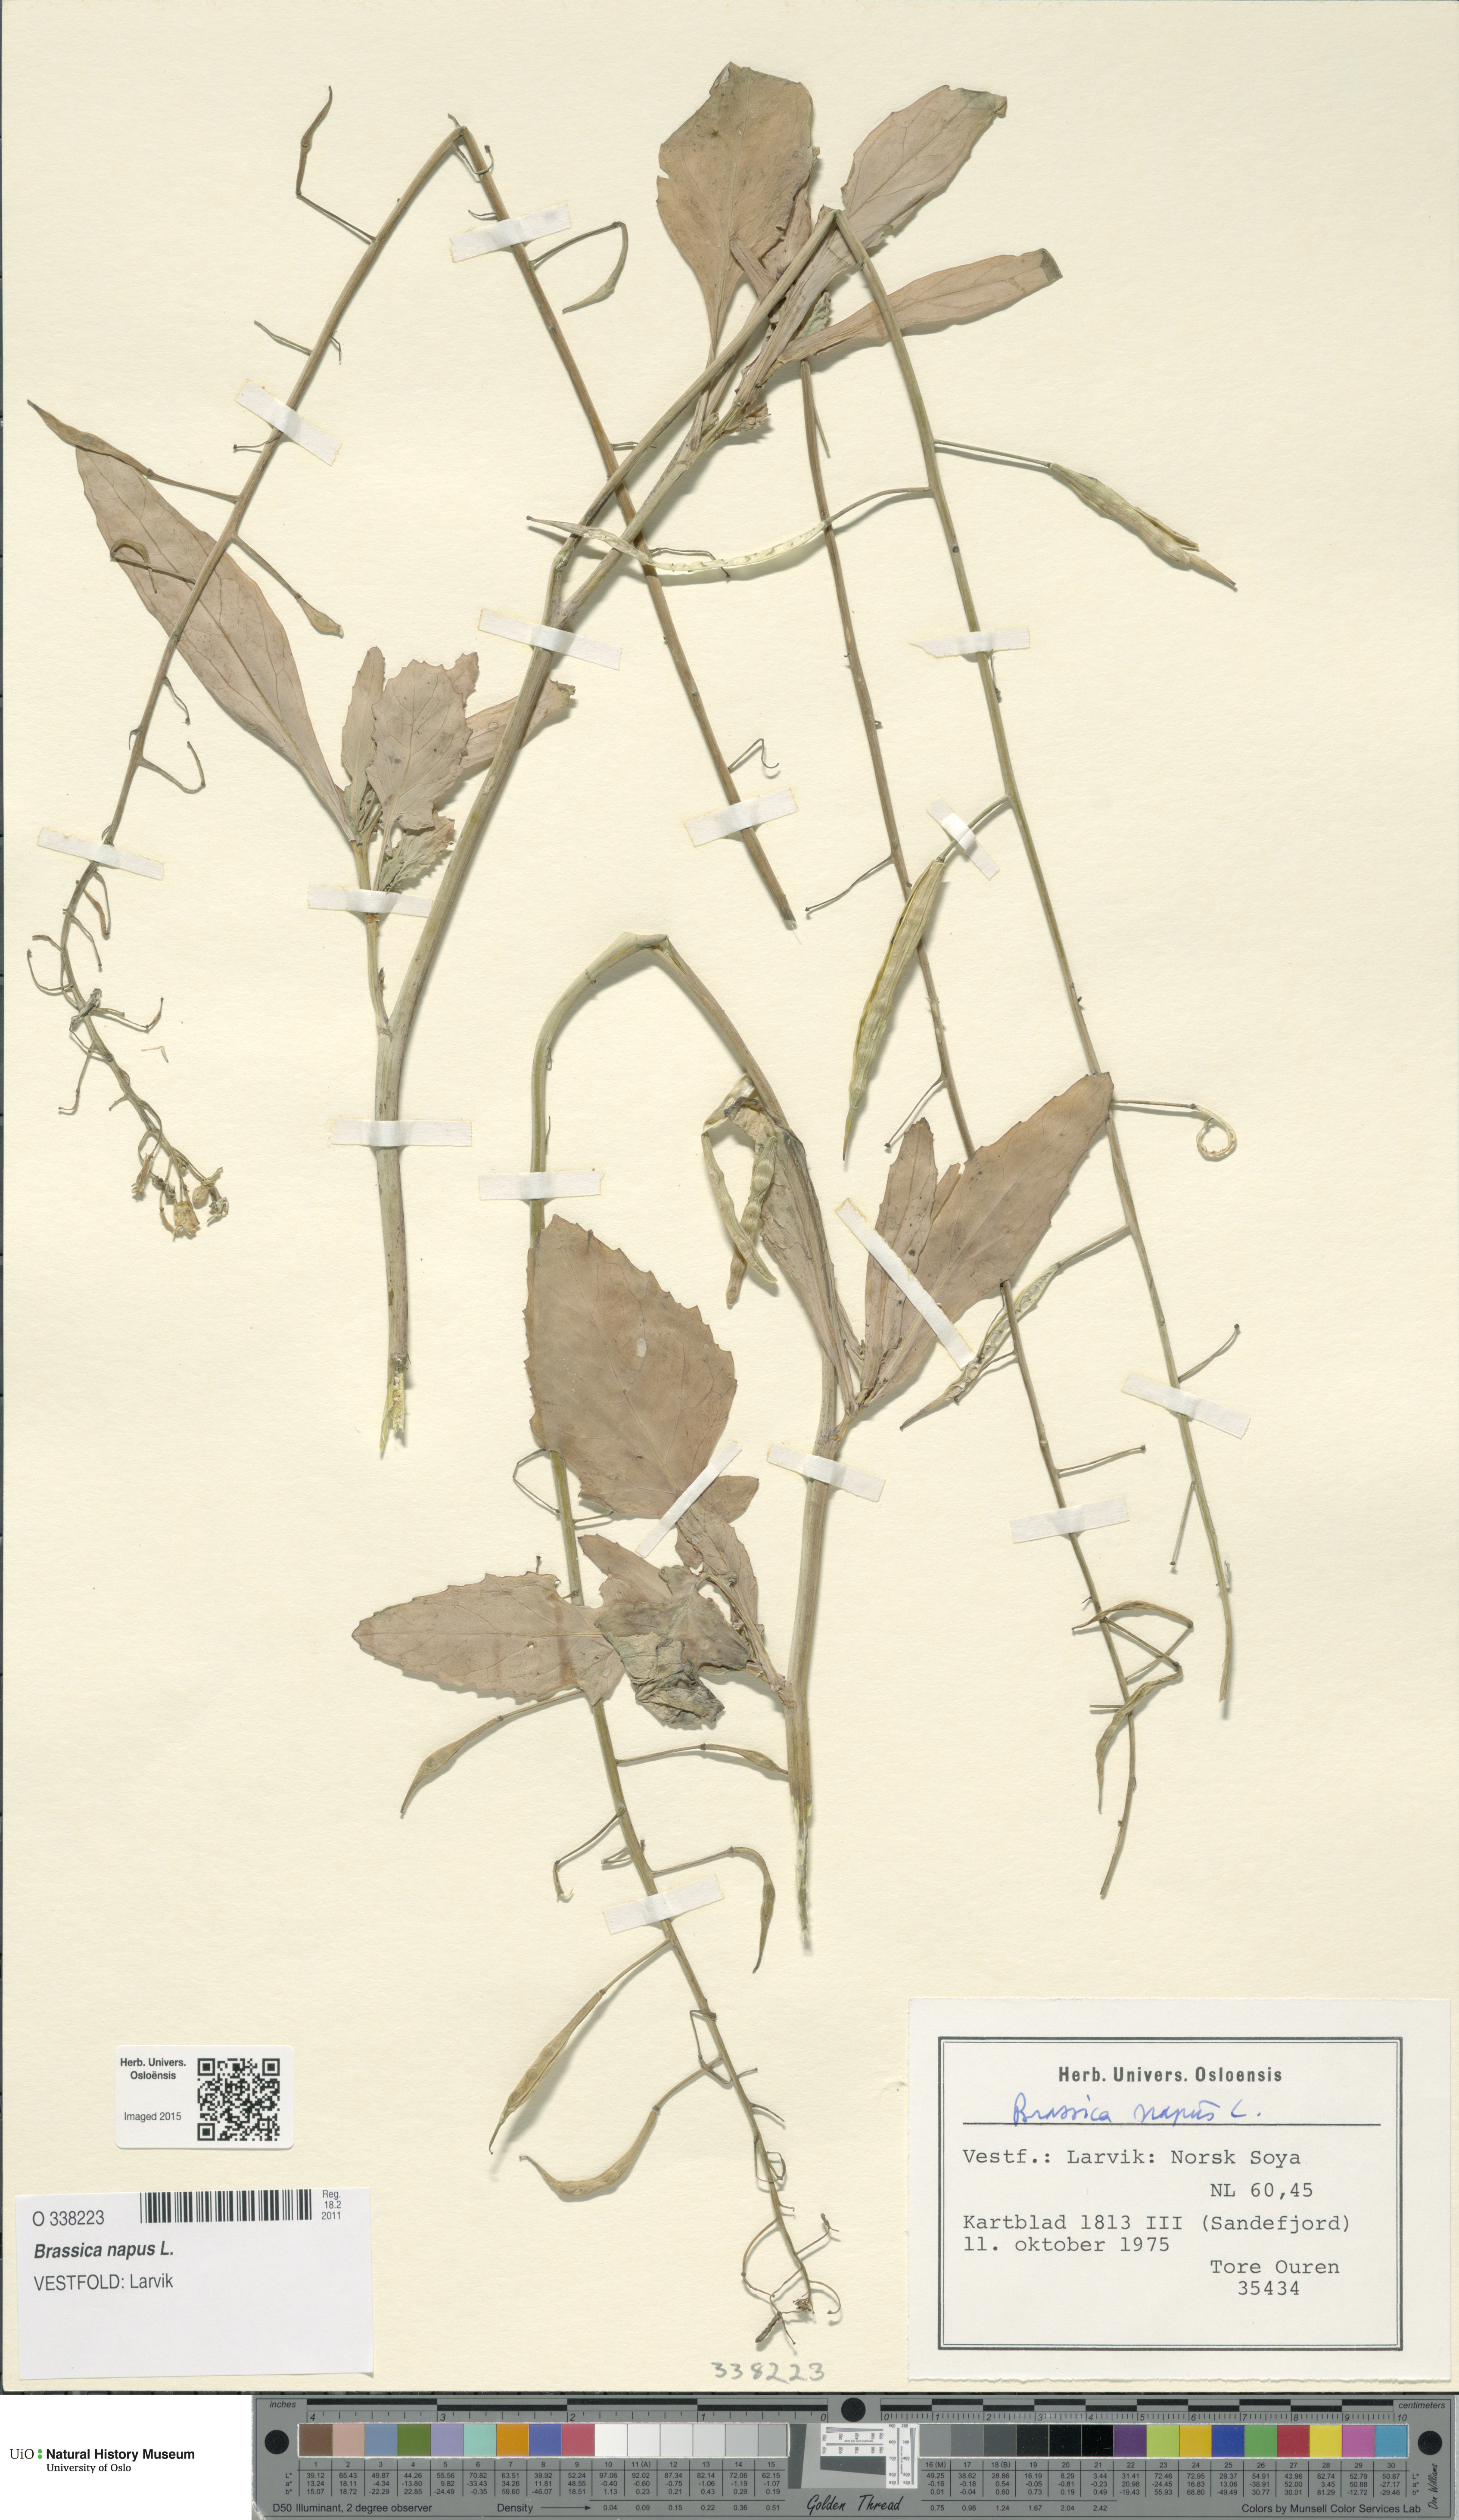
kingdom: Plantae
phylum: Tracheophyta
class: Magnoliopsida
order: Brassicales
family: Brassicaceae
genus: Brassica
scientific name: Brassica napus
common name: Rape
